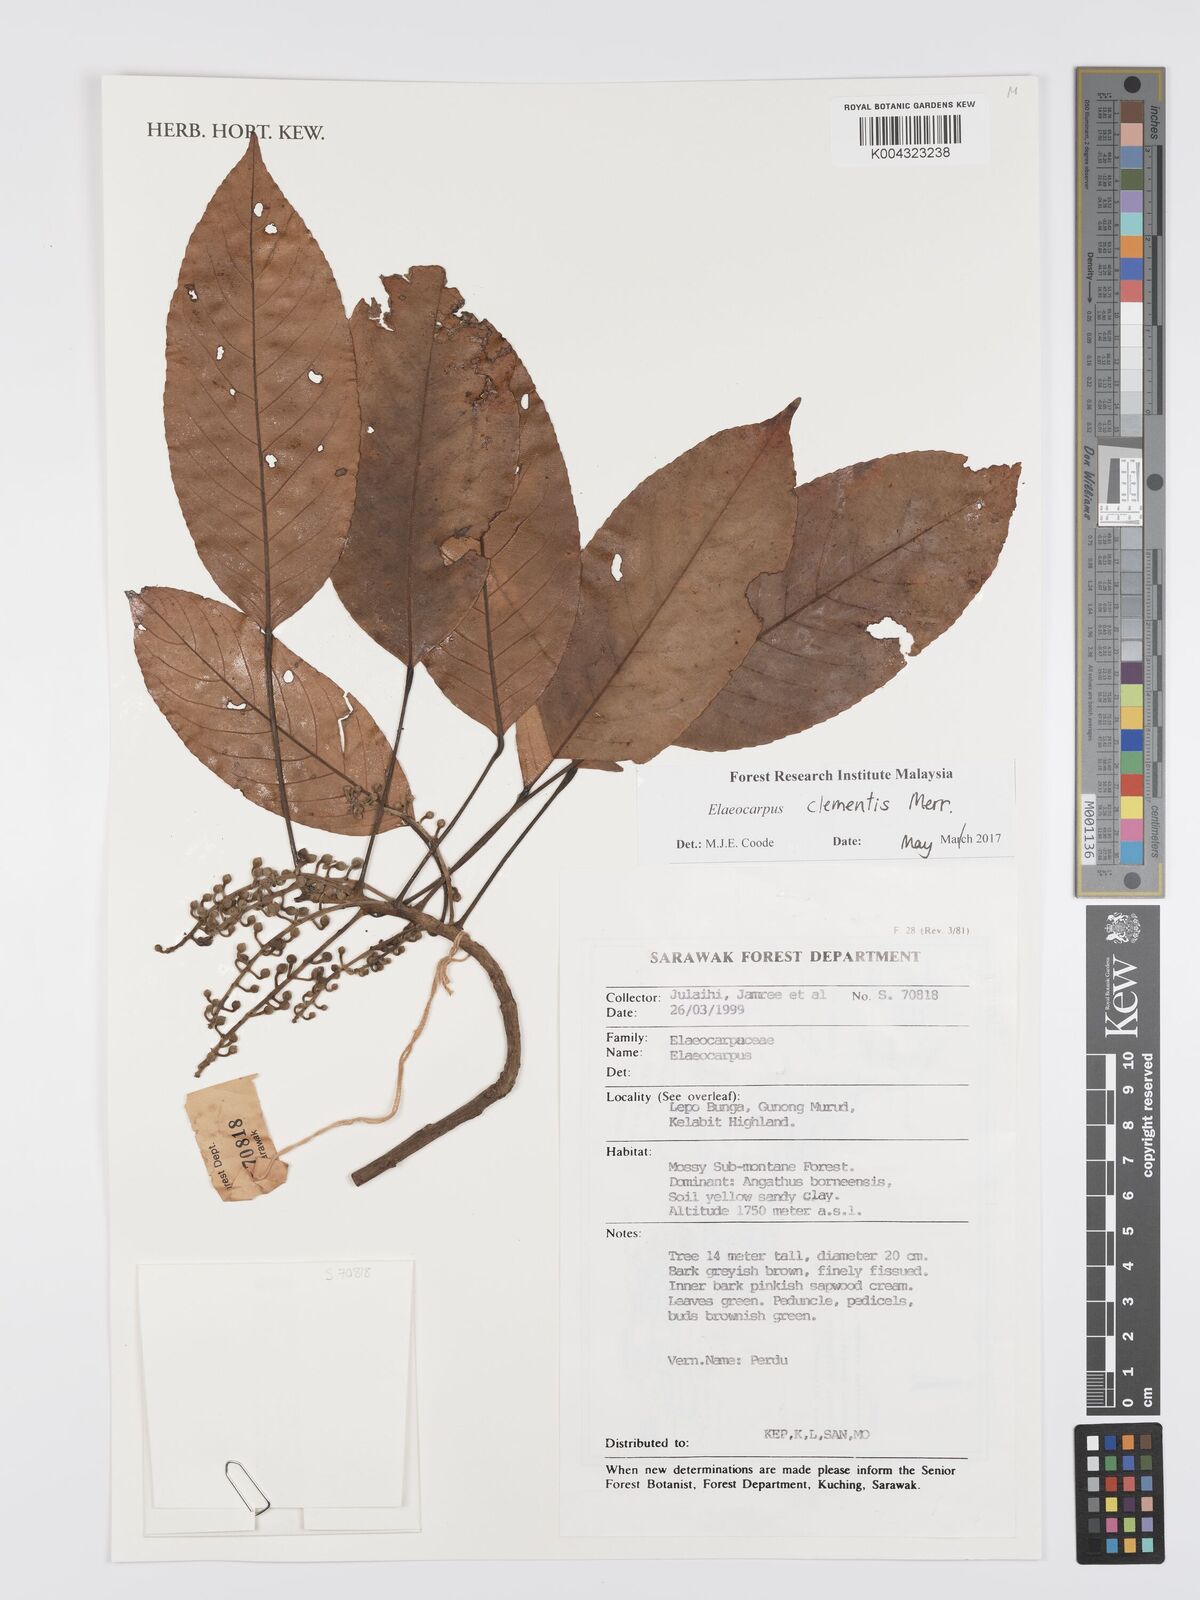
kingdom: Plantae
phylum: Tracheophyta
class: Magnoliopsida
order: Oxalidales
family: Elaeocarpaceae
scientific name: Elaeocarpaceae
